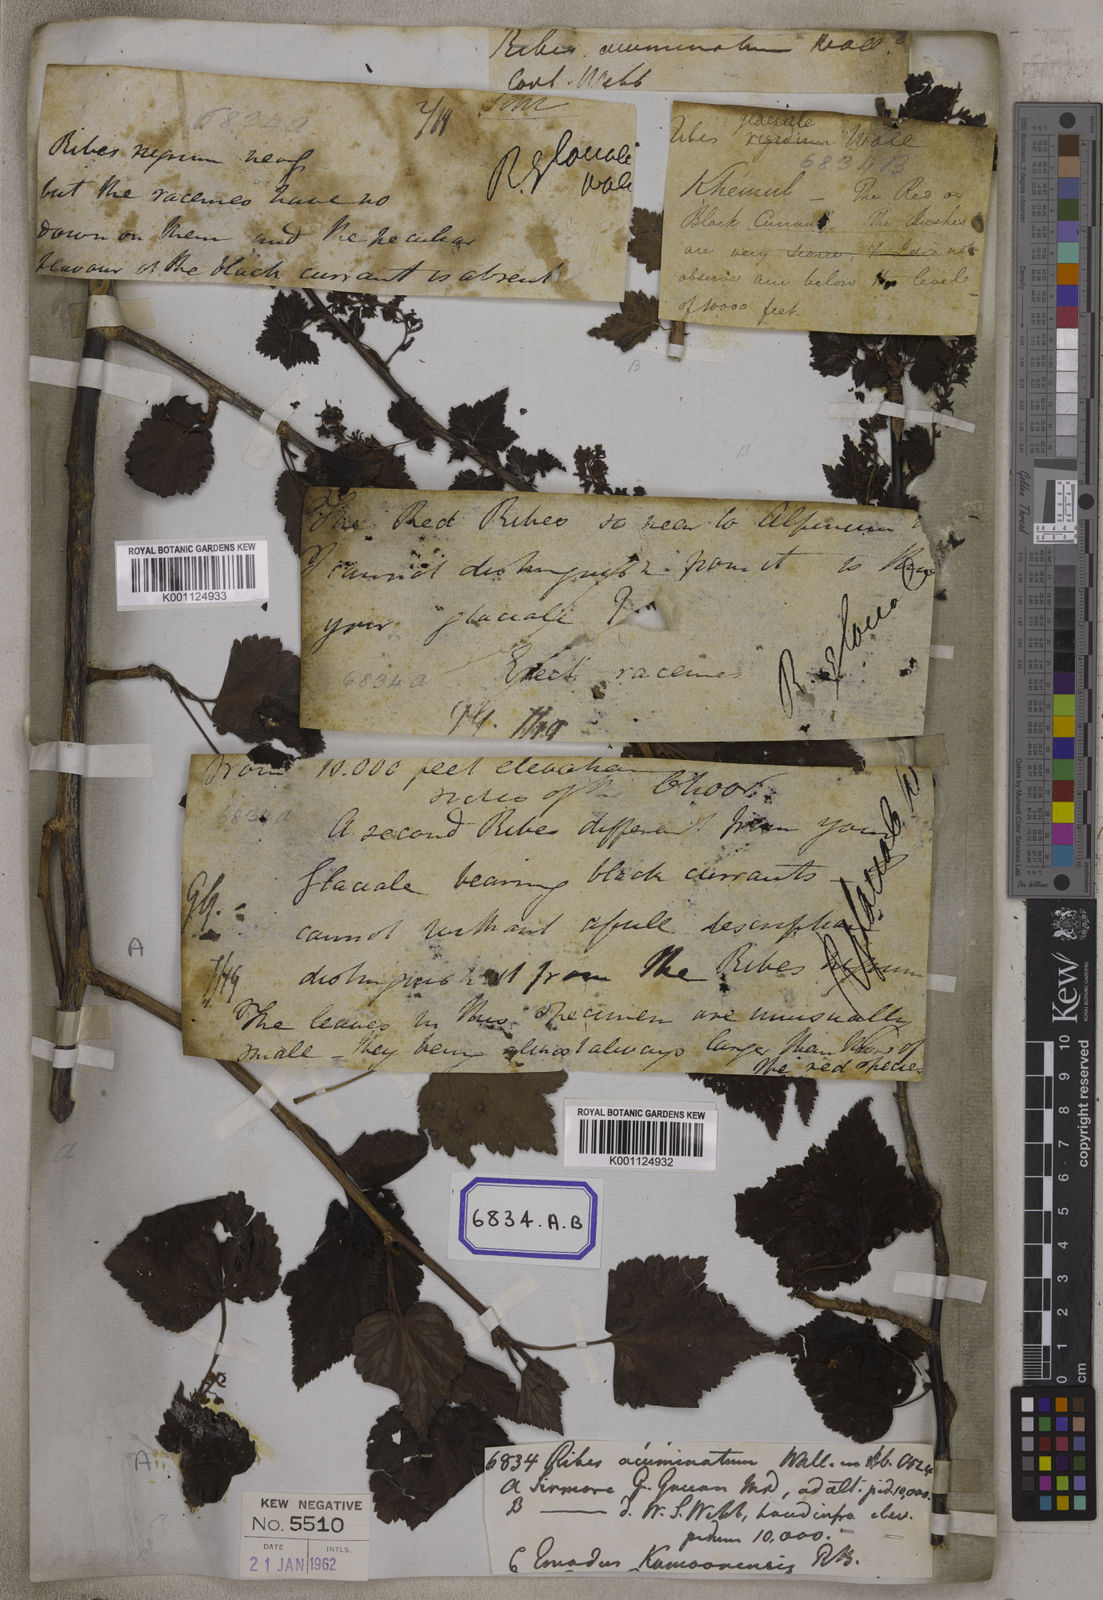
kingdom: Plantae
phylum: Tracheophyta
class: Magnoliopsida
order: Saxifragales
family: Grossulariaceae
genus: Ribes
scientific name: Ribes
